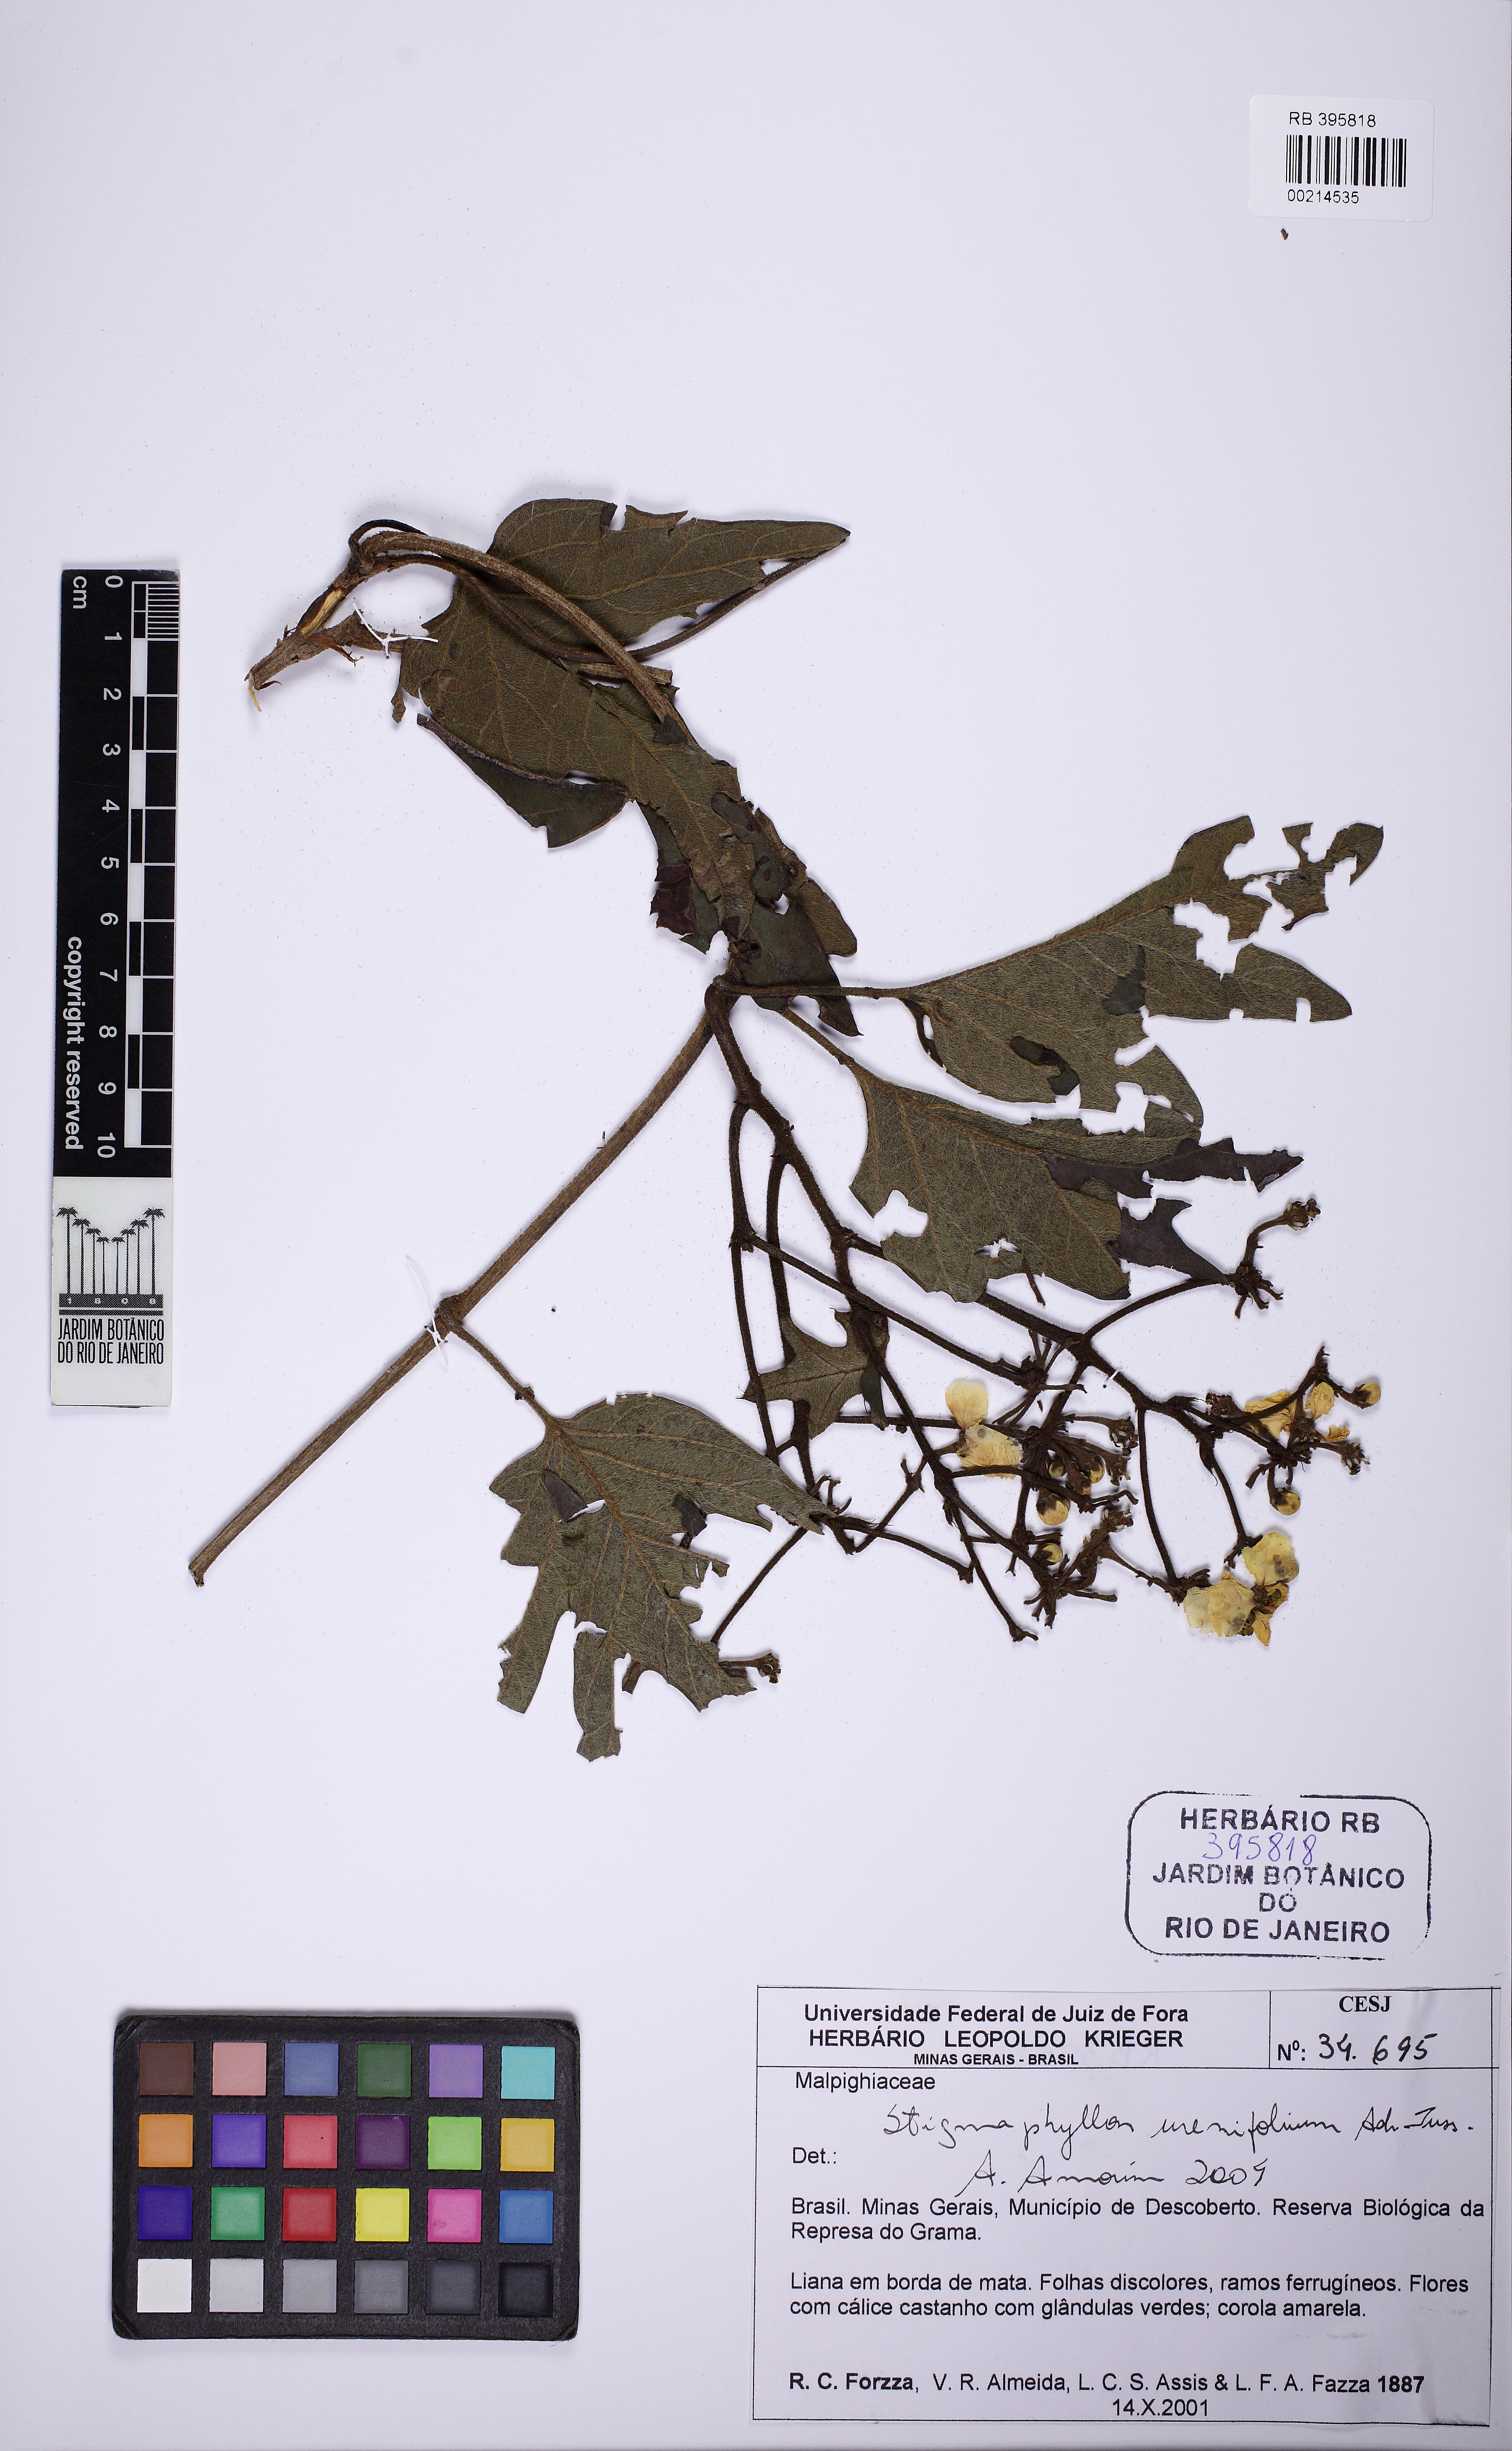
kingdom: Plantae
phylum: Tracheophyta
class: Magnoliopsida
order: Malpighiales
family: Malpighiaceae
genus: Stigmaphyllon
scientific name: Stigmaphyllon urenifolium
